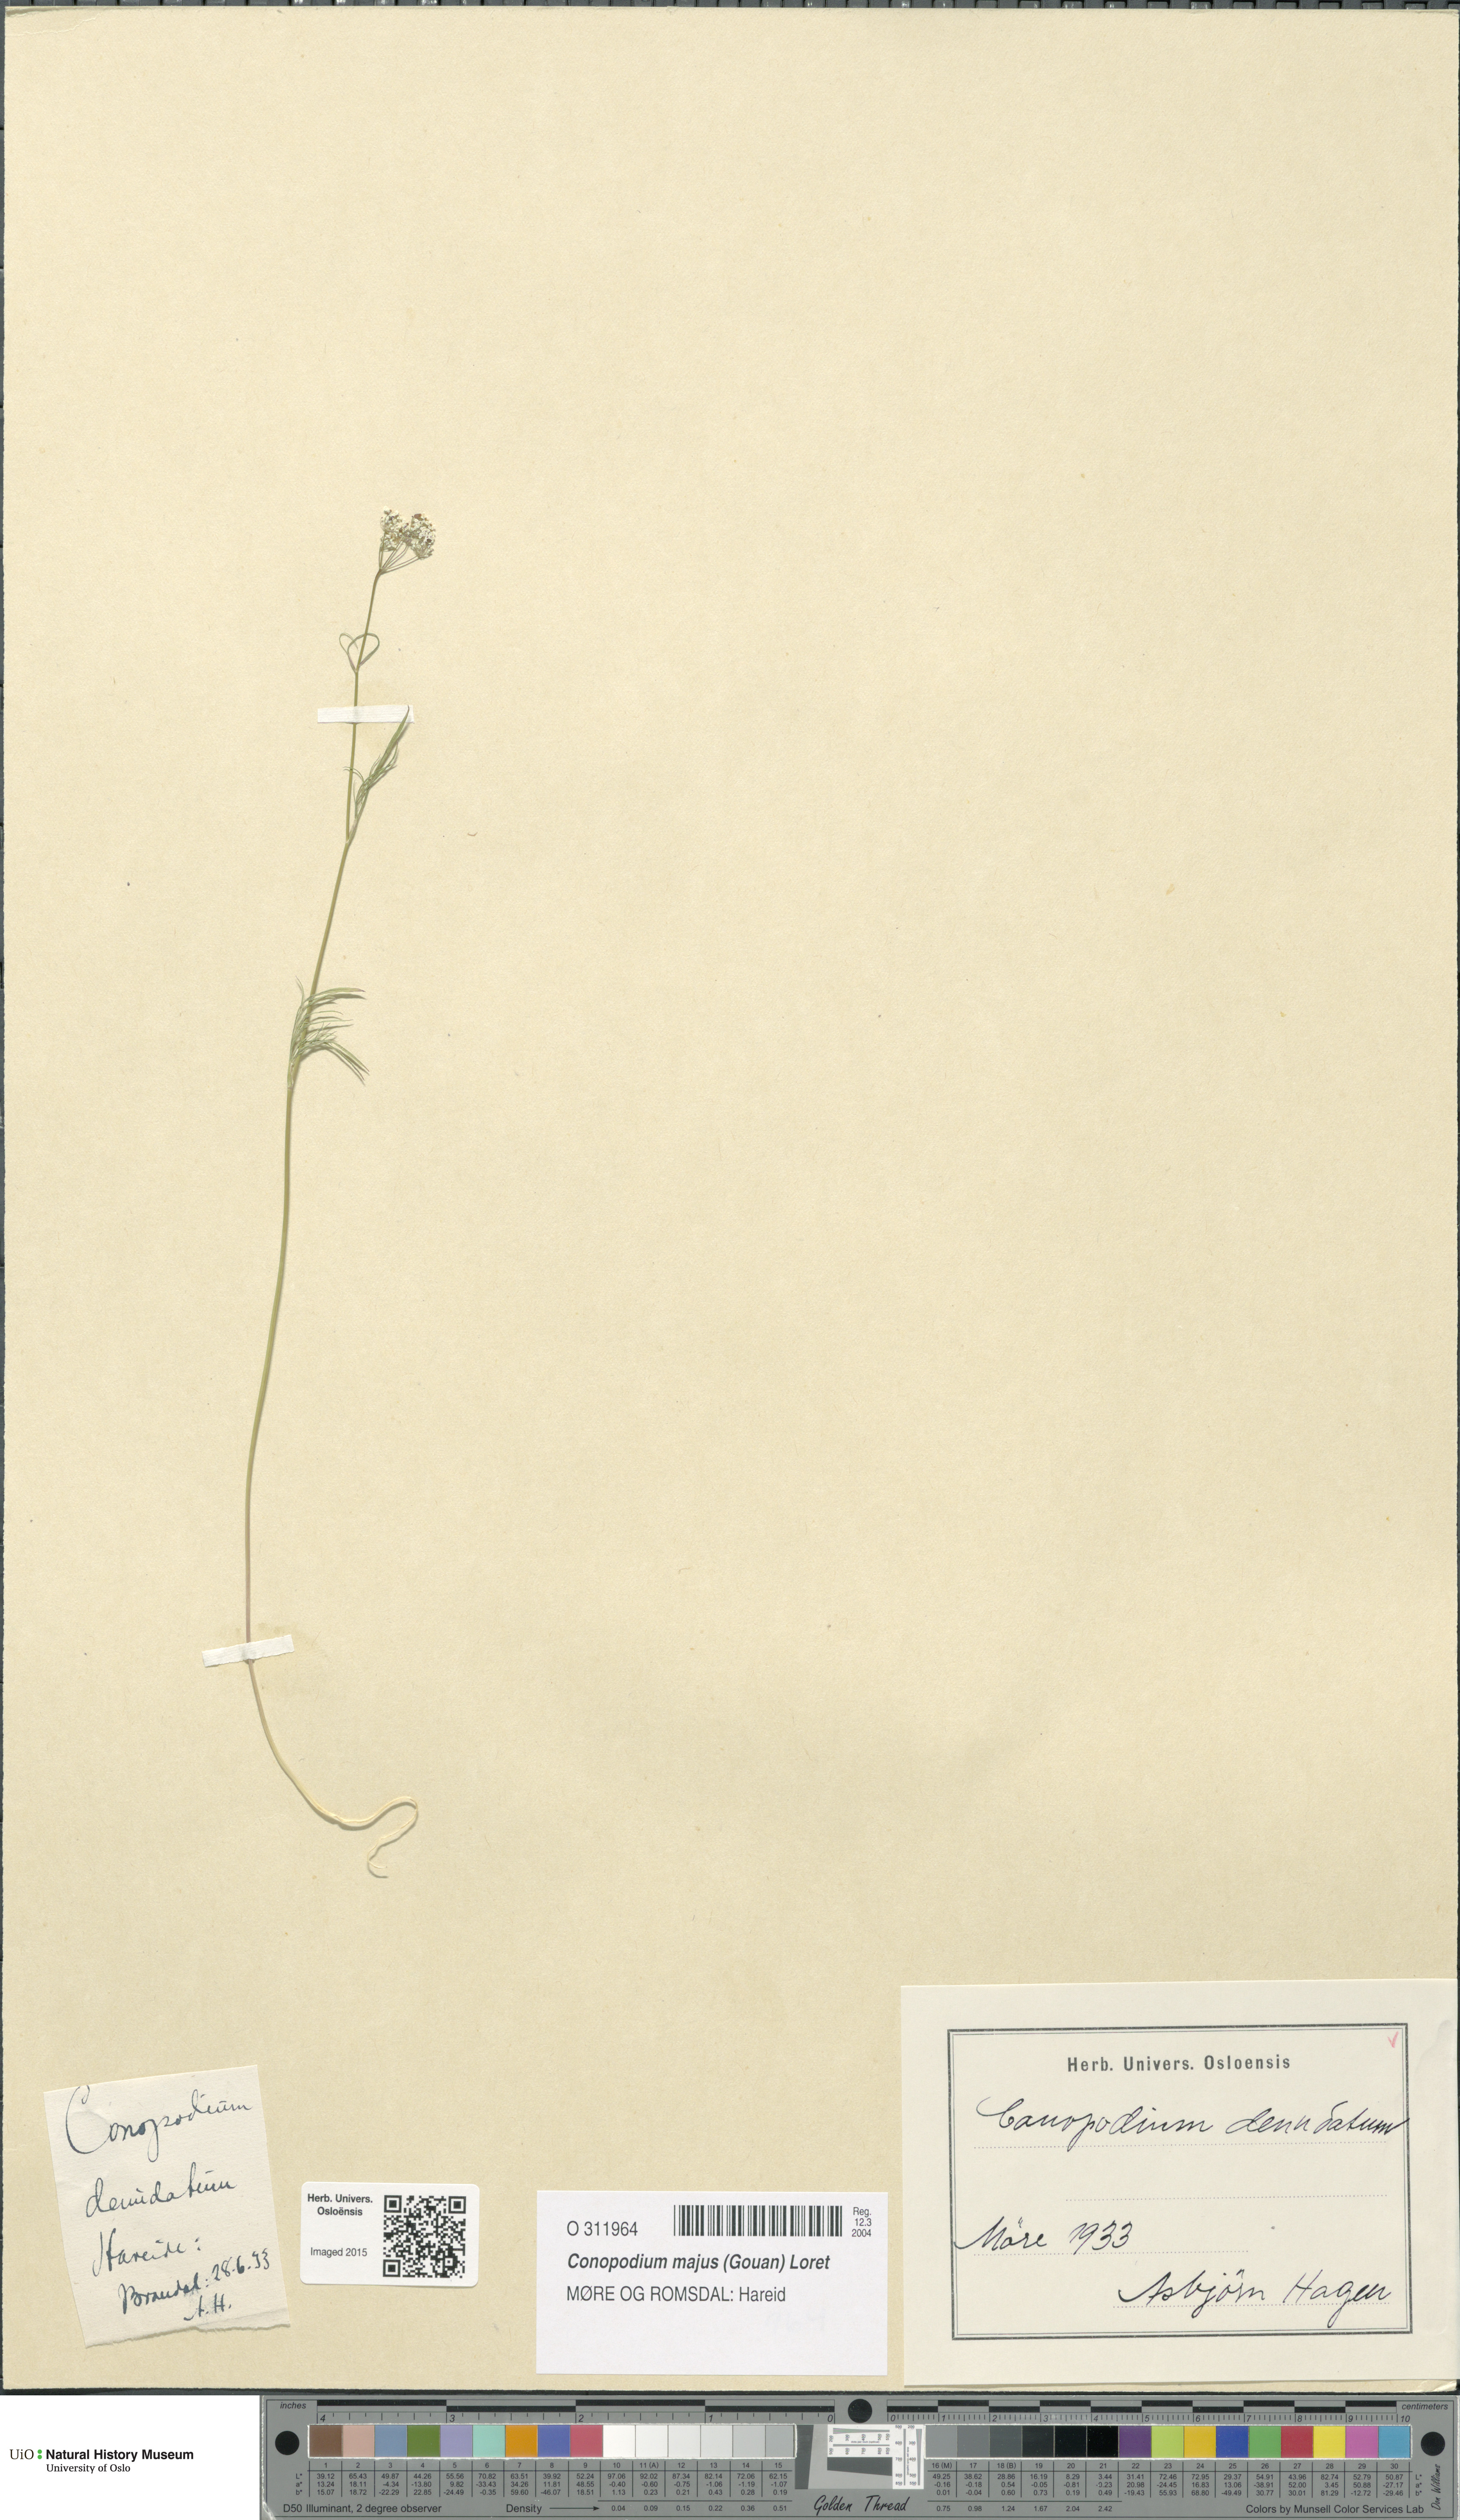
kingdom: Plantae
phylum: Tracheophyta
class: Magnoliopsida
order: Apiales
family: Apiaceae
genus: Conopodium
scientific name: Conopodium majus
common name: Pignut
